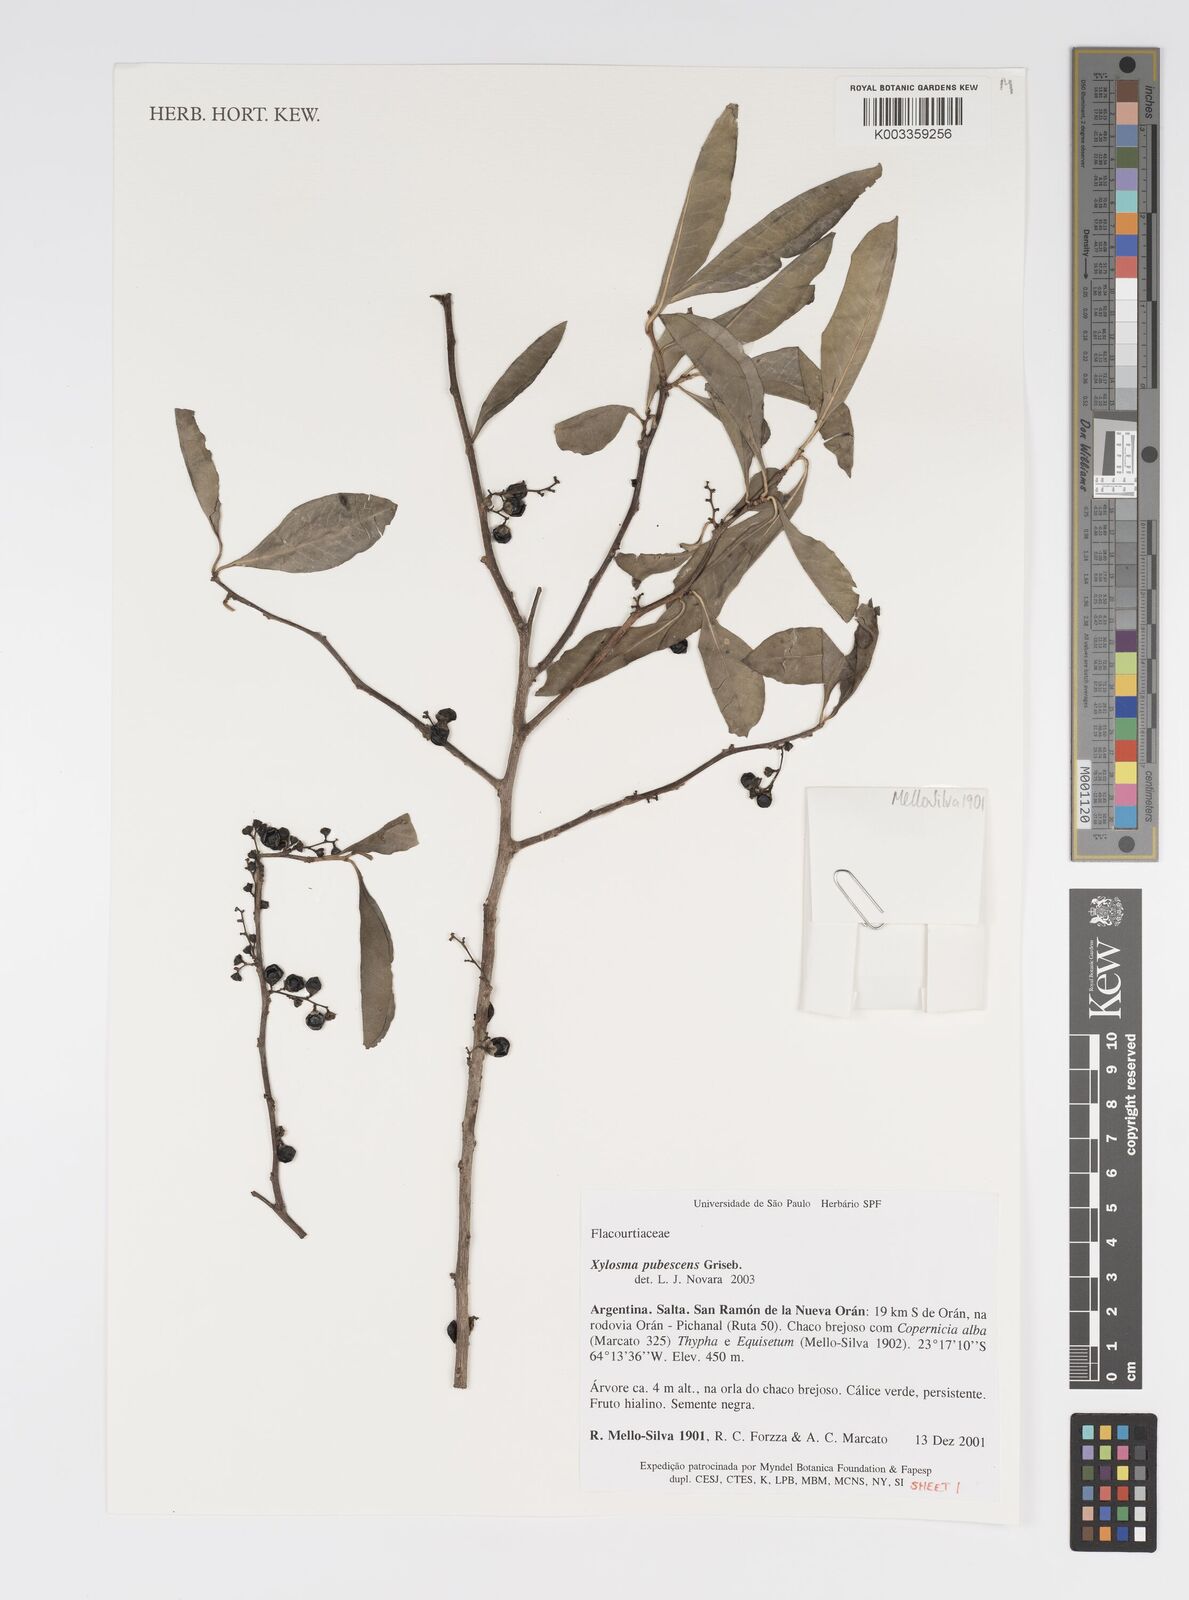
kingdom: Plantae
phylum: Tracheophyta
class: Magnoliopsida
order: Malpighiales
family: Salicaceae
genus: Xylosma
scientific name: Xylosma pubescens
